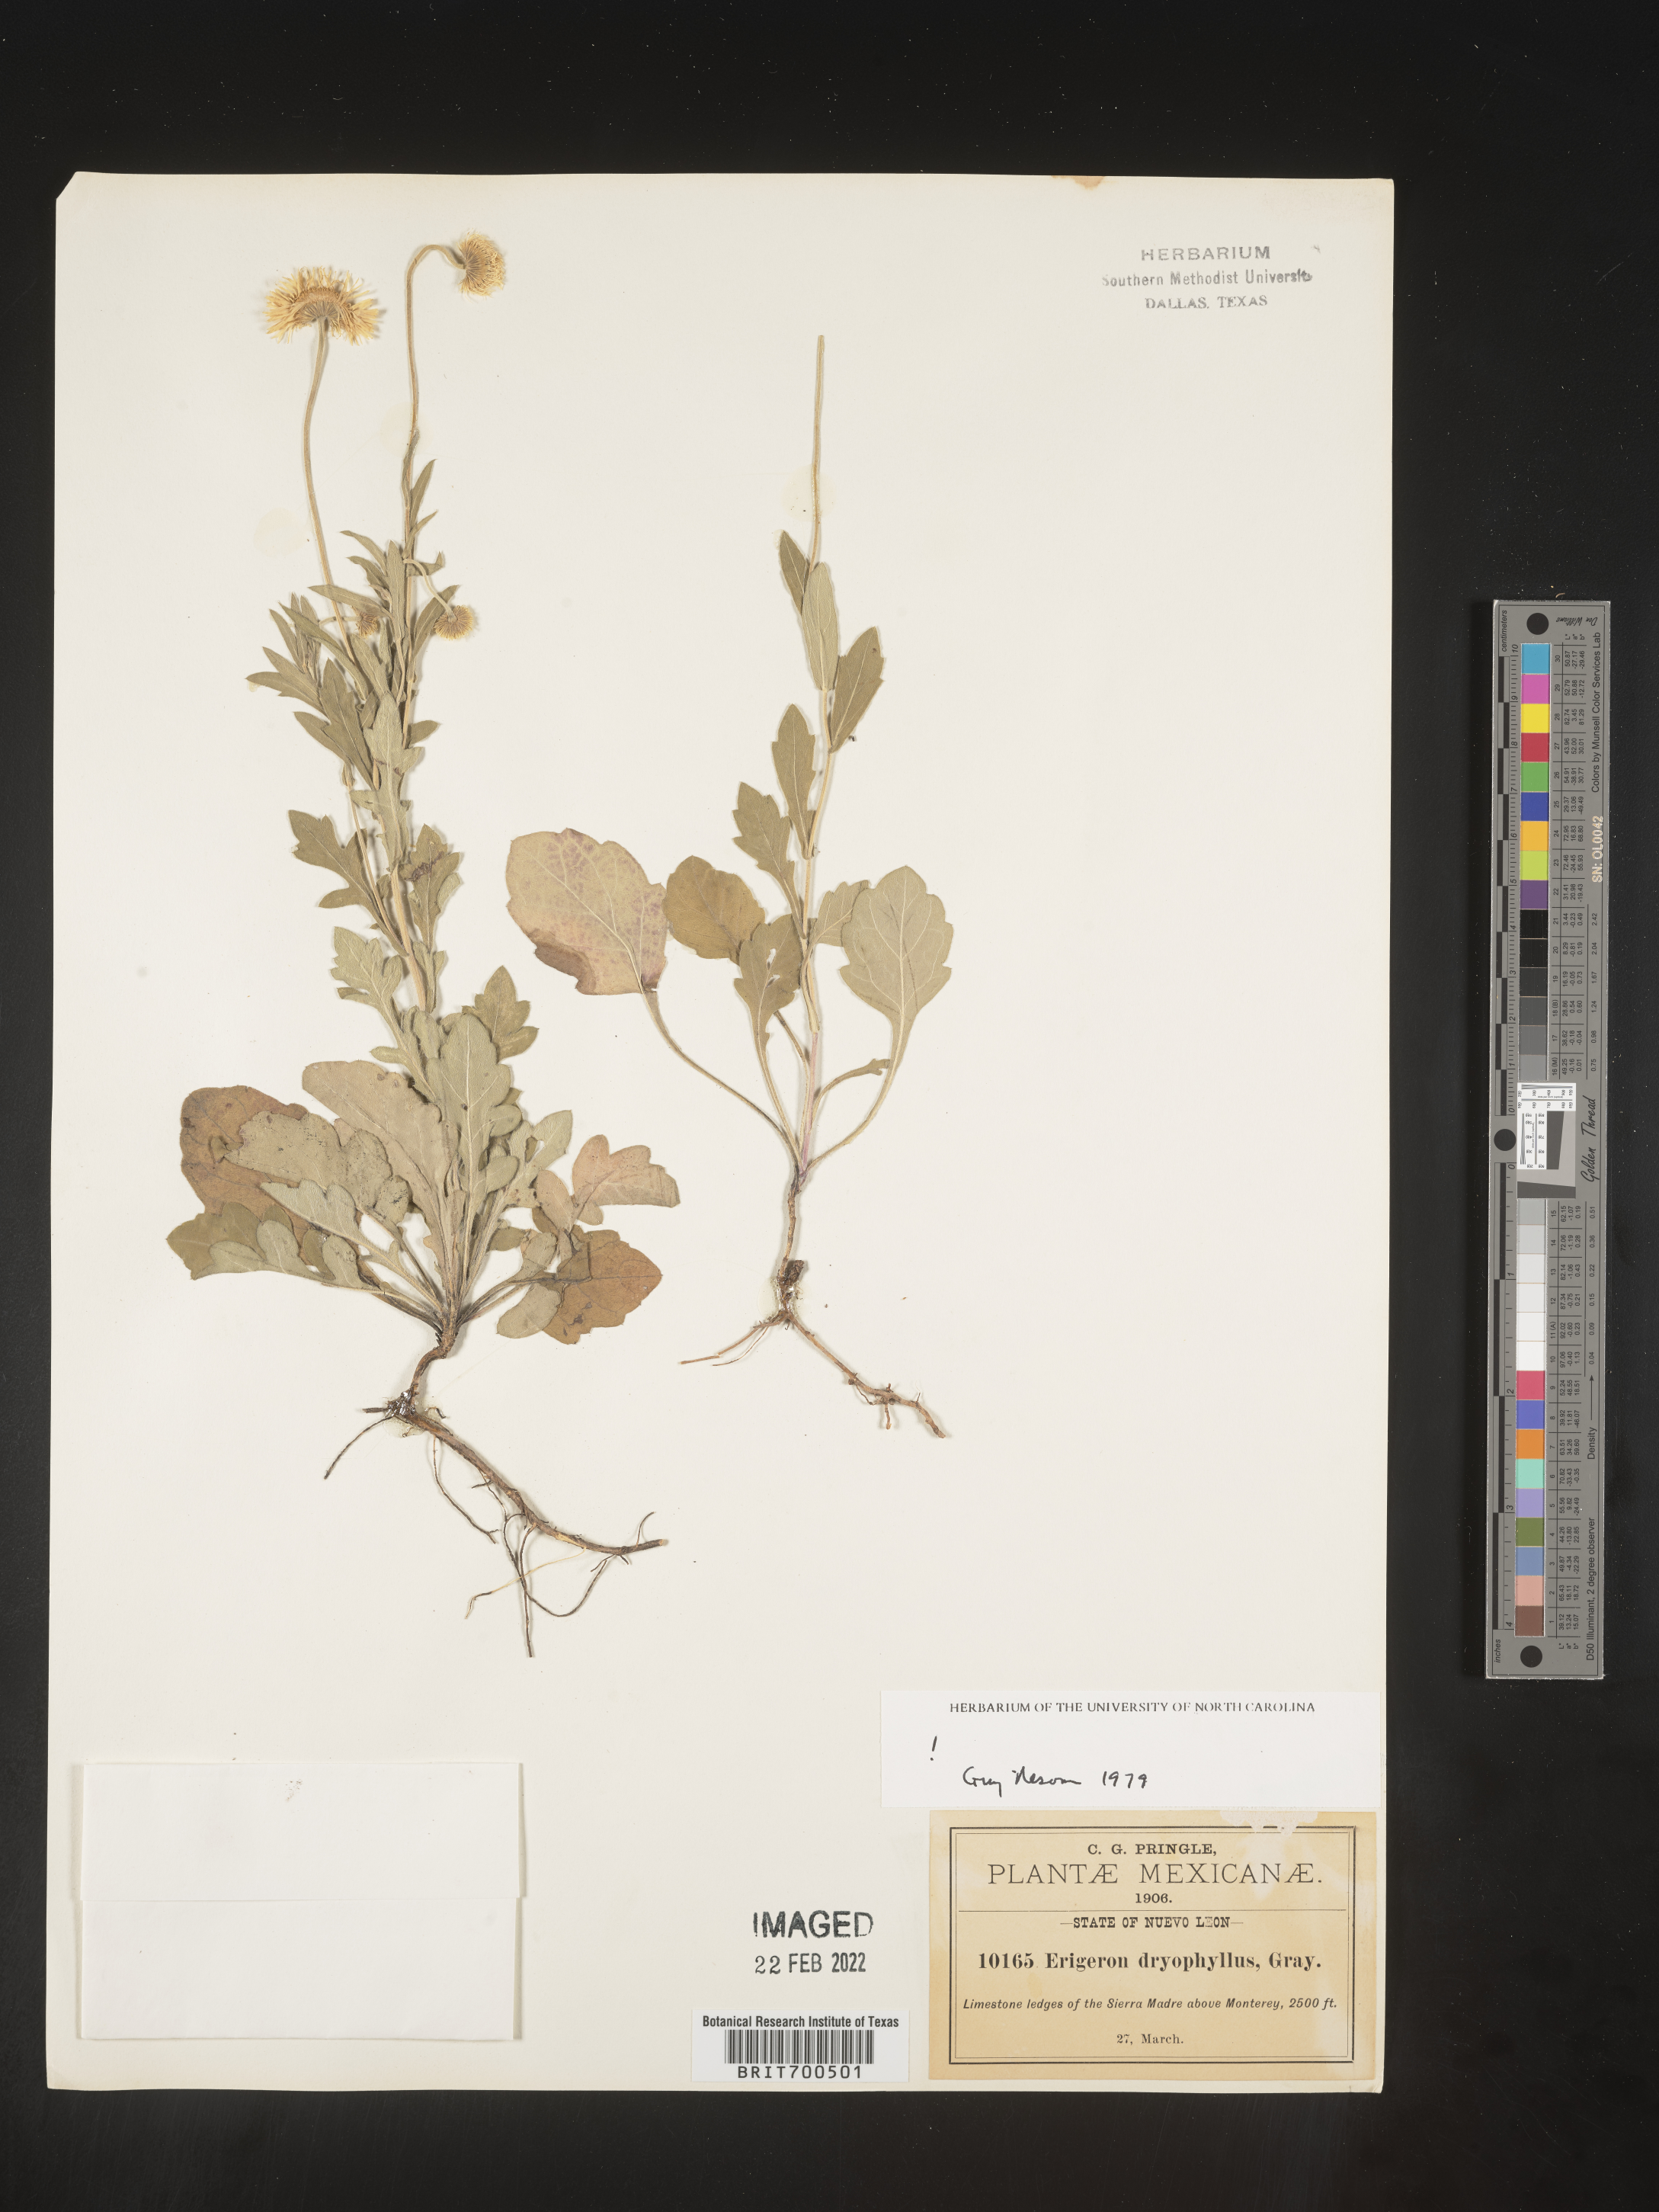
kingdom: Plantae
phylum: Tracheophyta
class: Magnoliopsida
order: Asterales
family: Asteraceae
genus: Erigeron
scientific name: Erigeron
